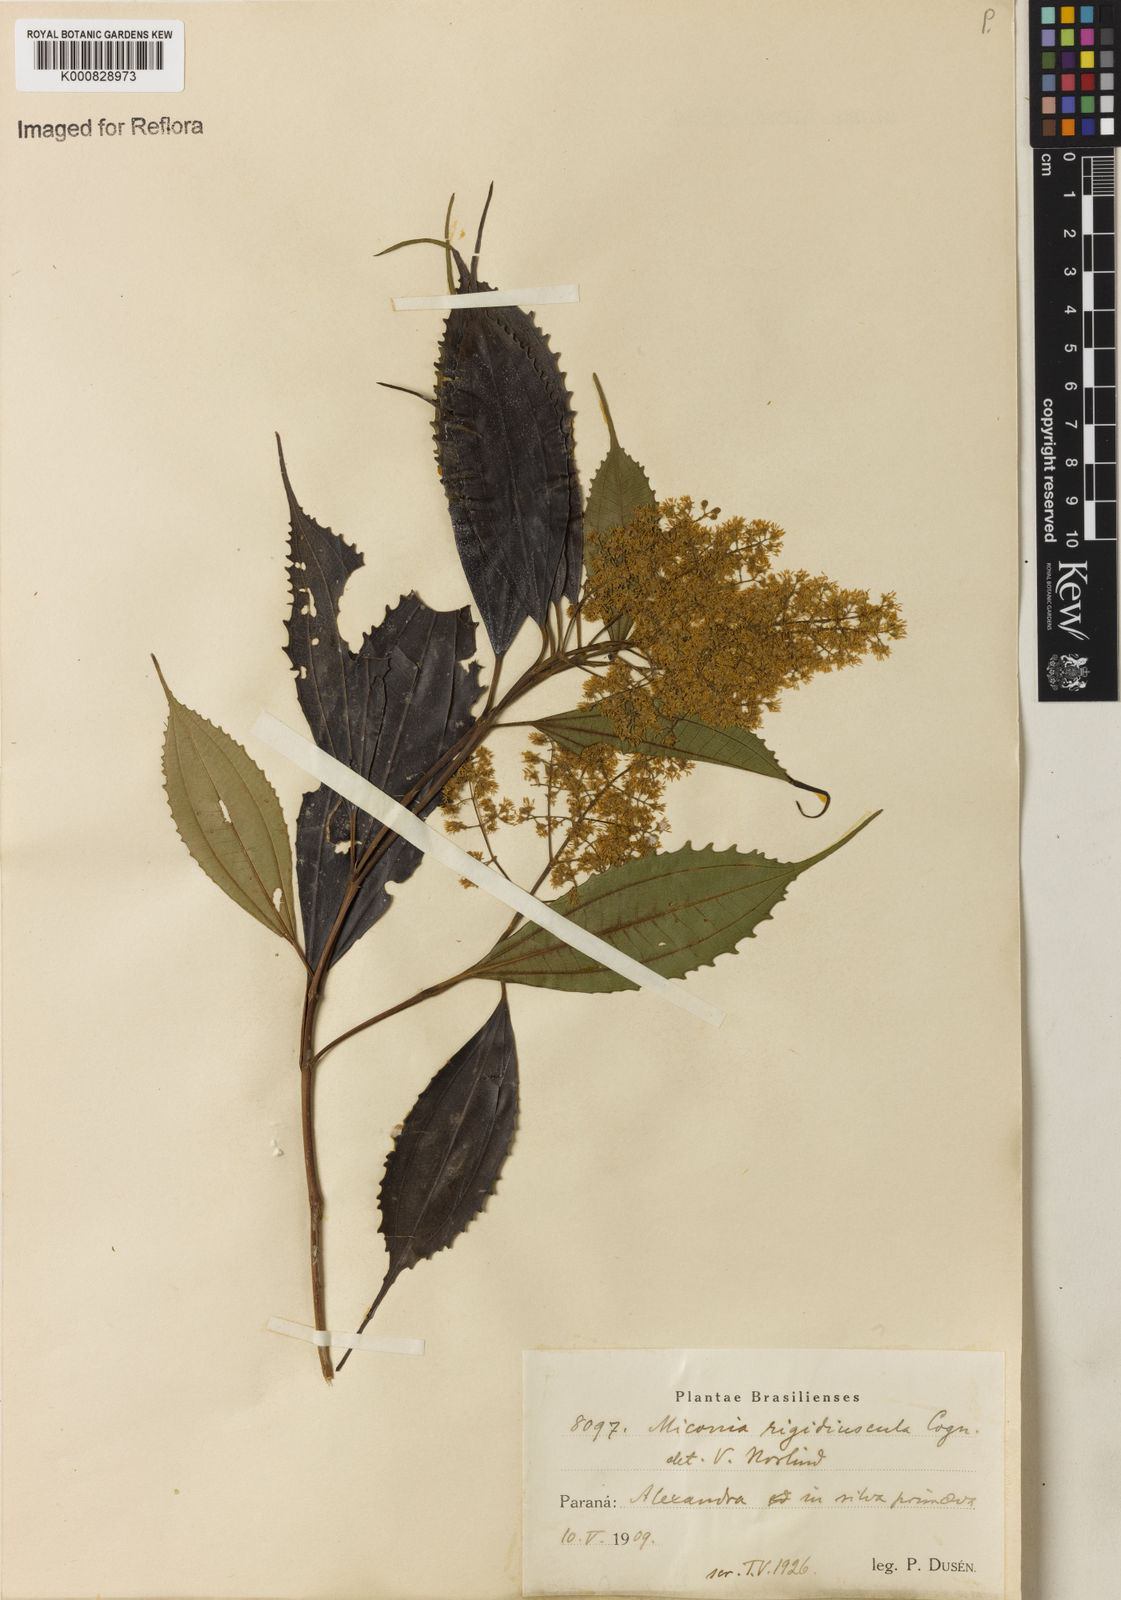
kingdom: Plantae
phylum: Tracheophyta
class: Magnoliopsida
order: Myrtales
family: Melastomataceae
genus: Miconia
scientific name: Miconia pusilliflora
